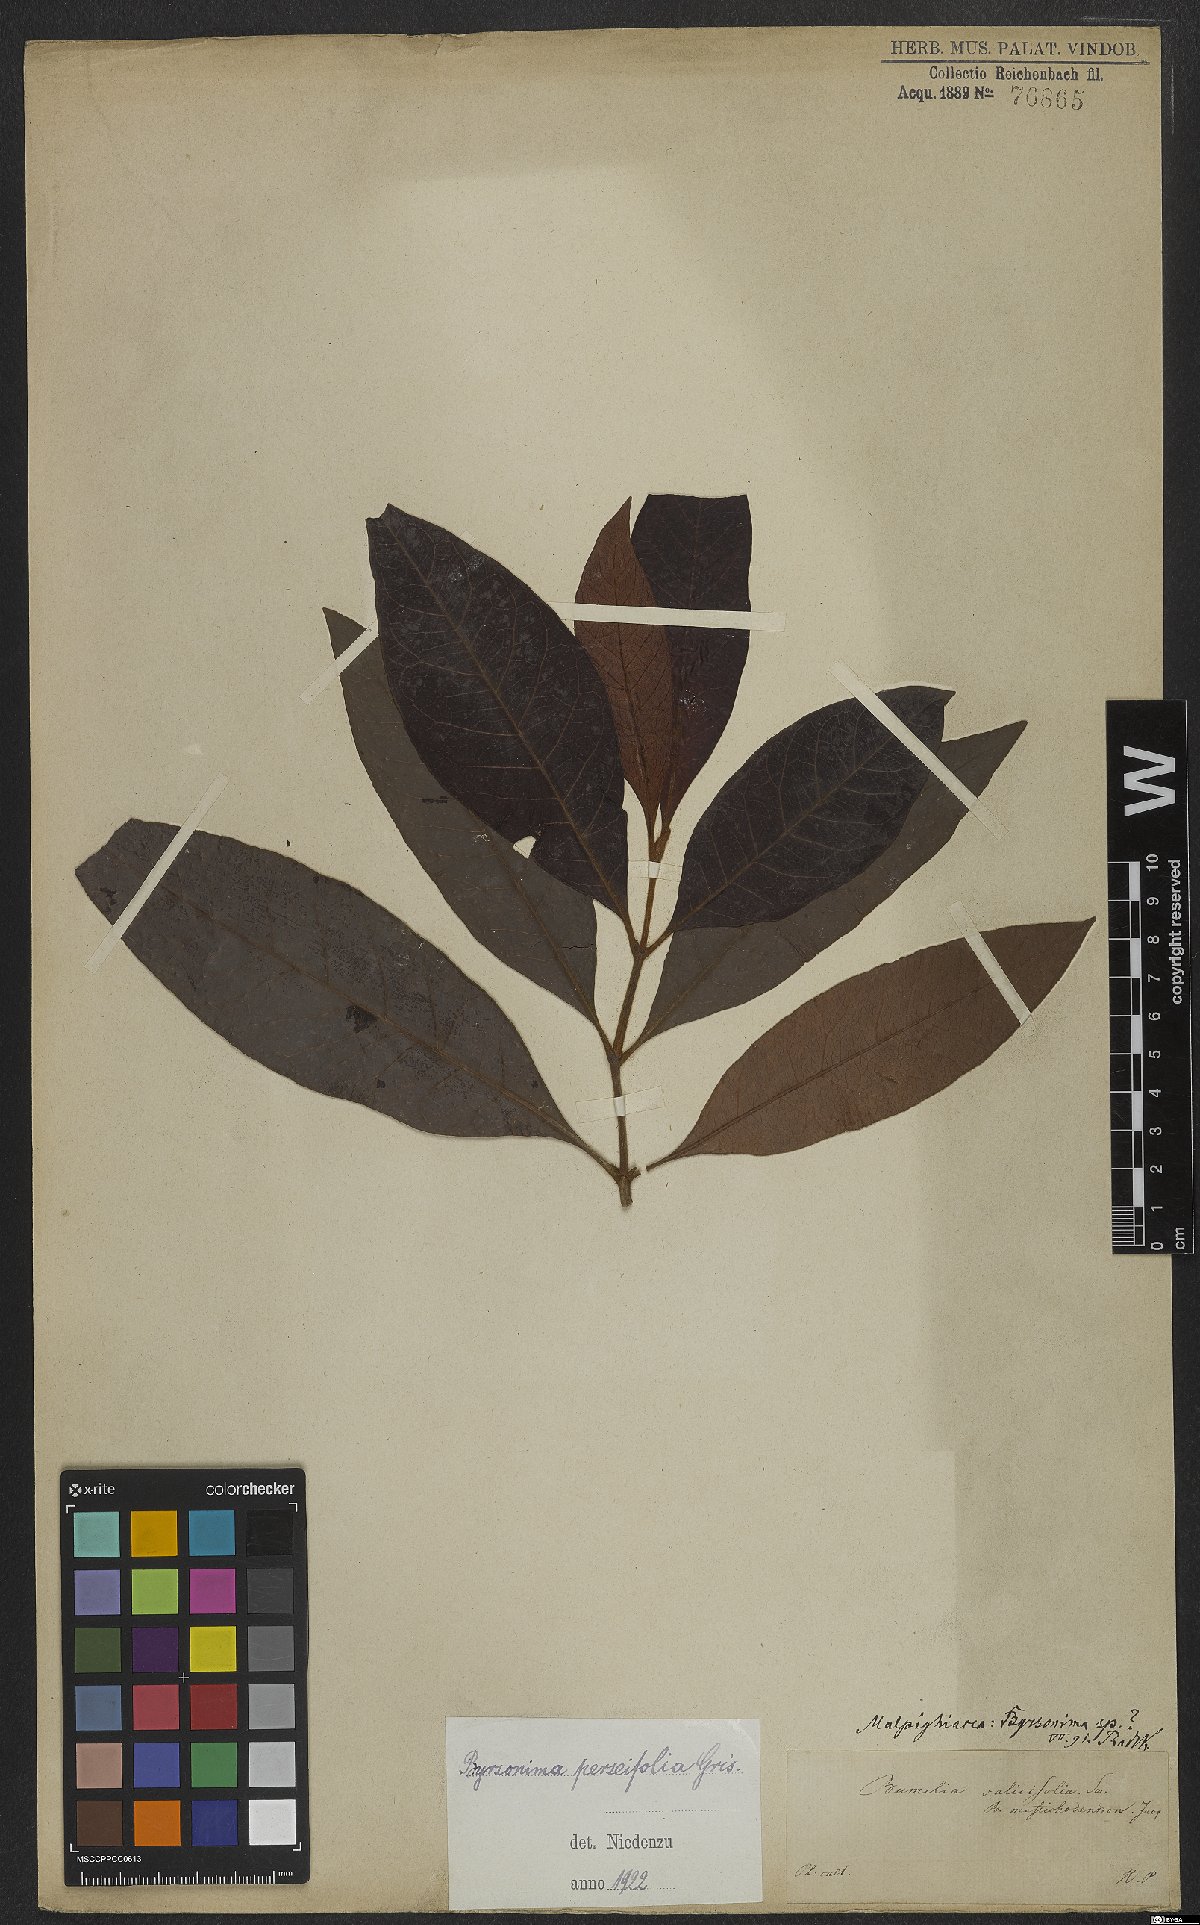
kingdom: Plantae
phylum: Tracheophyta
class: Magnoliopsida
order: Malpighiales
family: Malpighiaceae
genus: Byrsonima
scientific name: Byrsonima perseifolia
